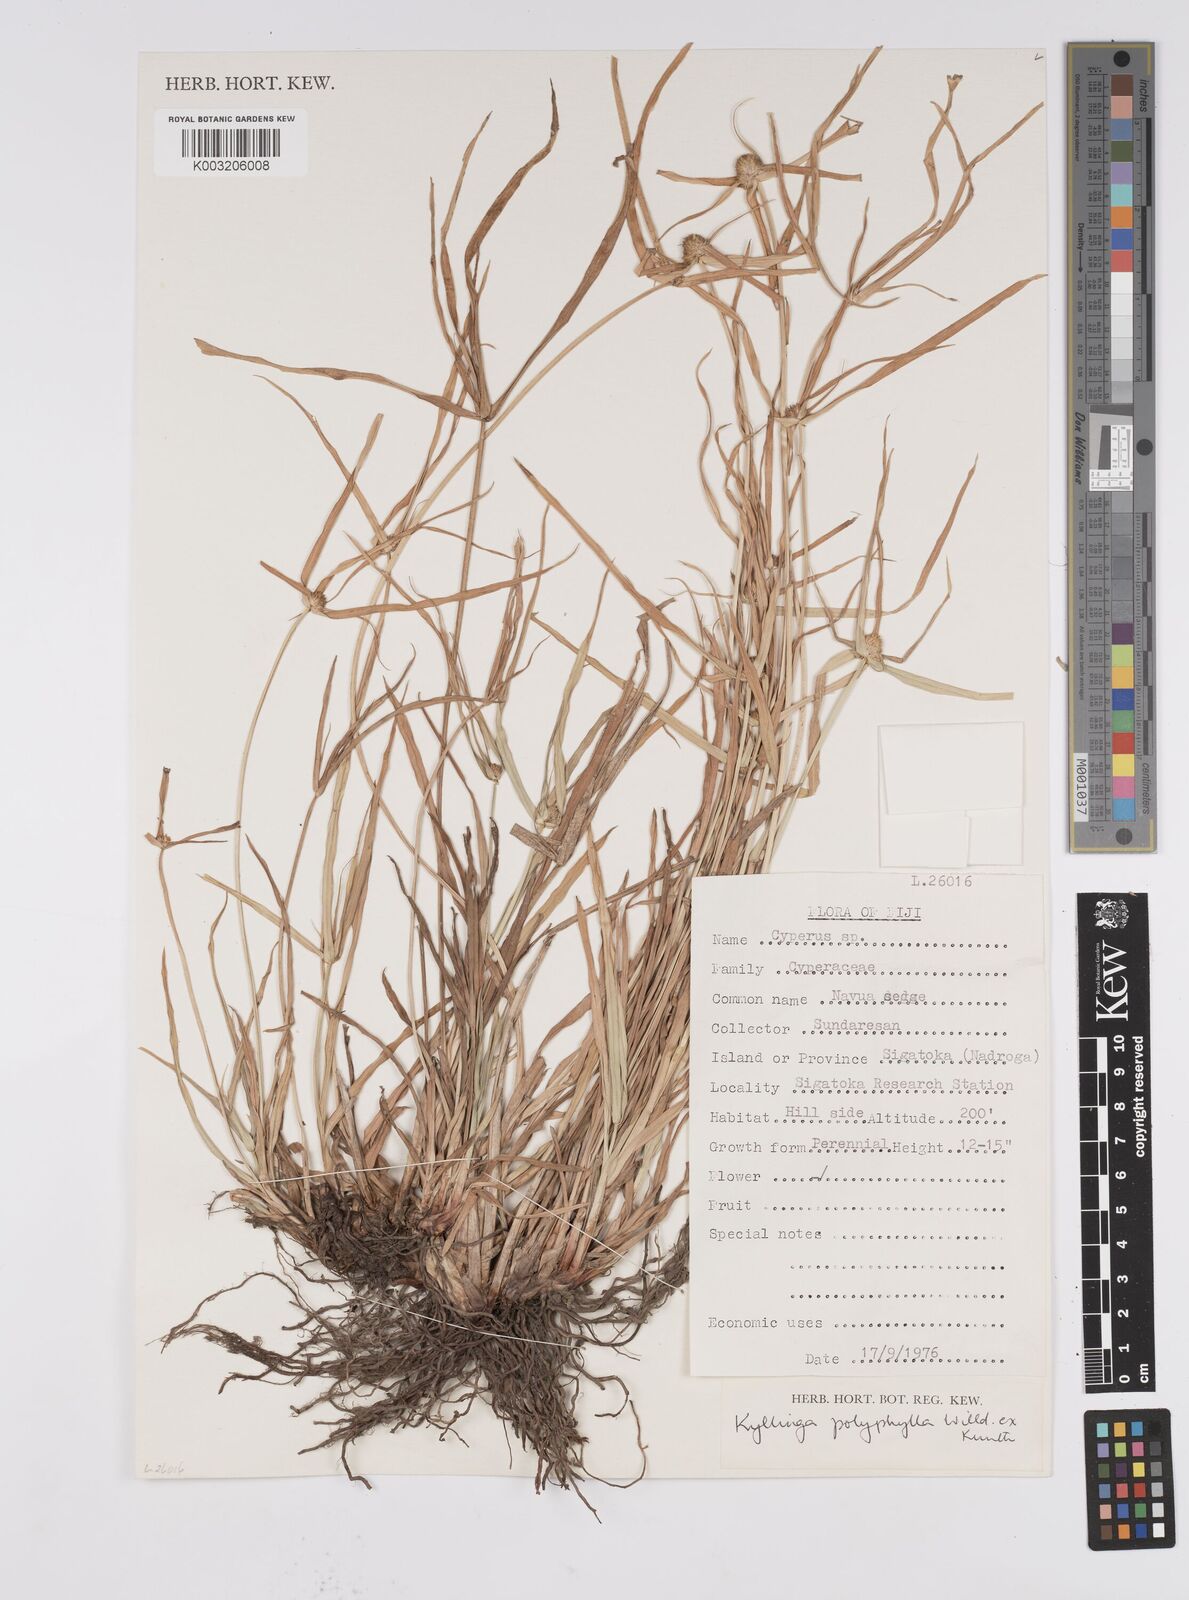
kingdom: Plantae
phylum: Tracheophyta
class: Liliopsida
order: Poales
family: Cyperaceae
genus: Cyperus
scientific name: Cyperus bulbosus
